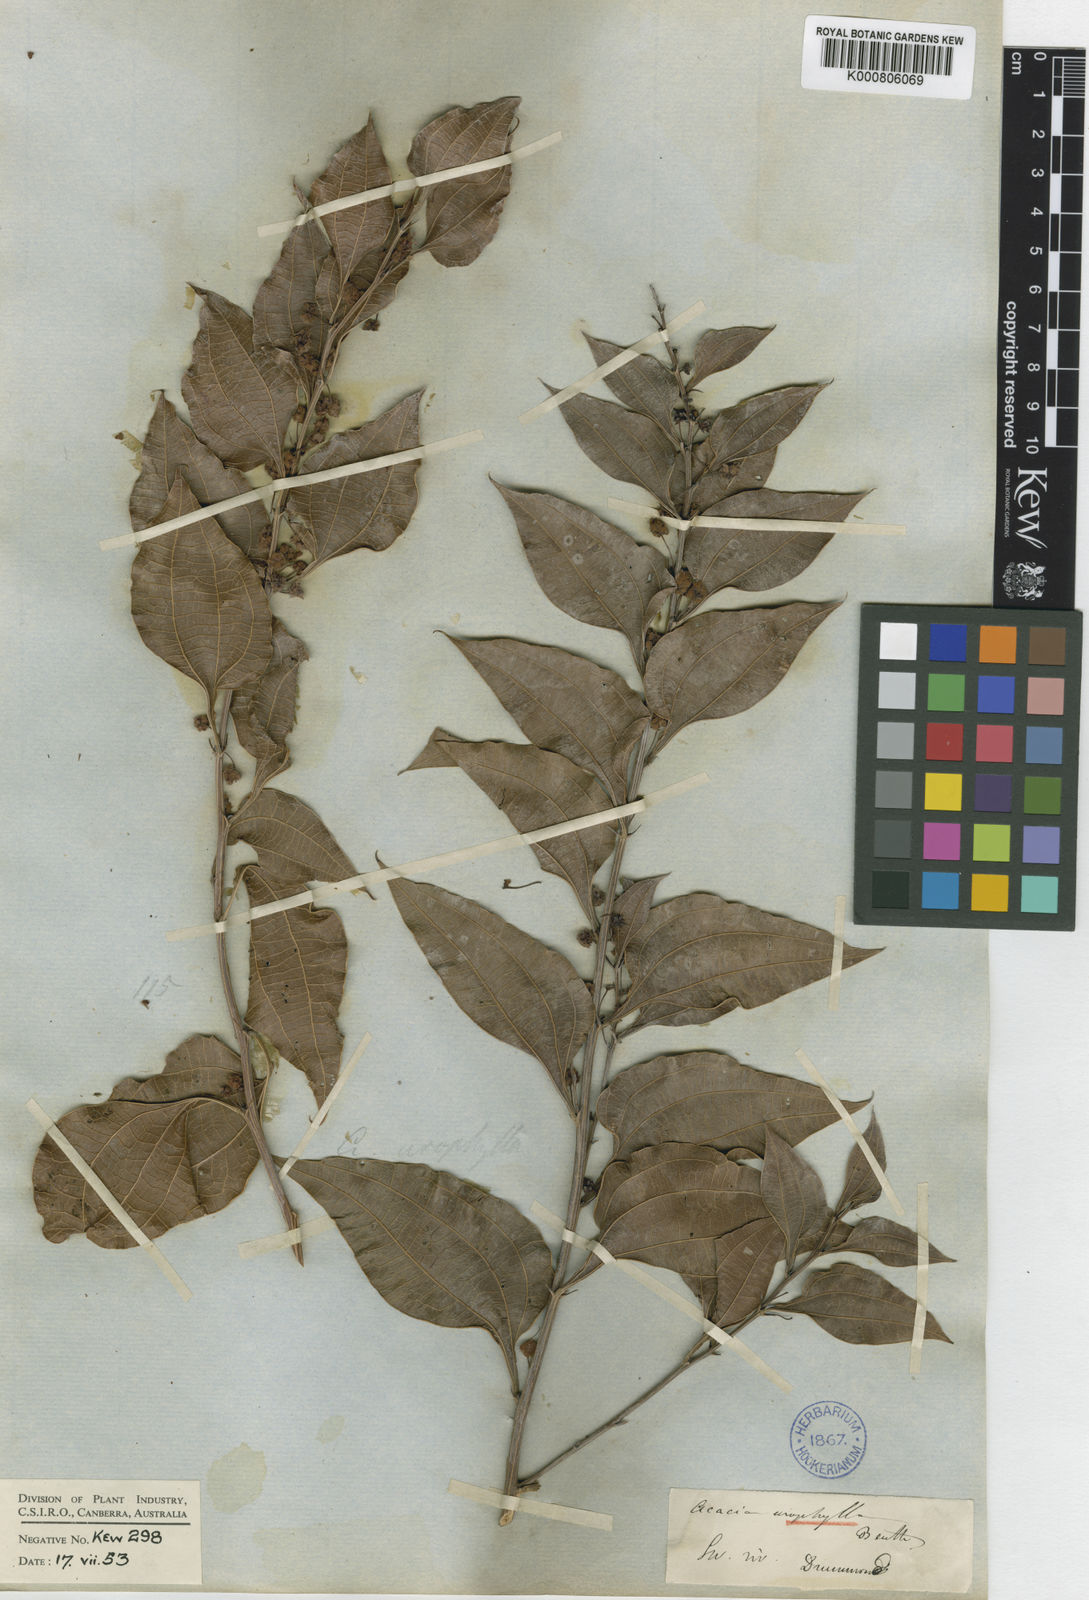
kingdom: Plantae
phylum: Tracheophyta
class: Magnoliopsida
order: Fabales
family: Fabaceae
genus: Acacia
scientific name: Acacia urophylla
